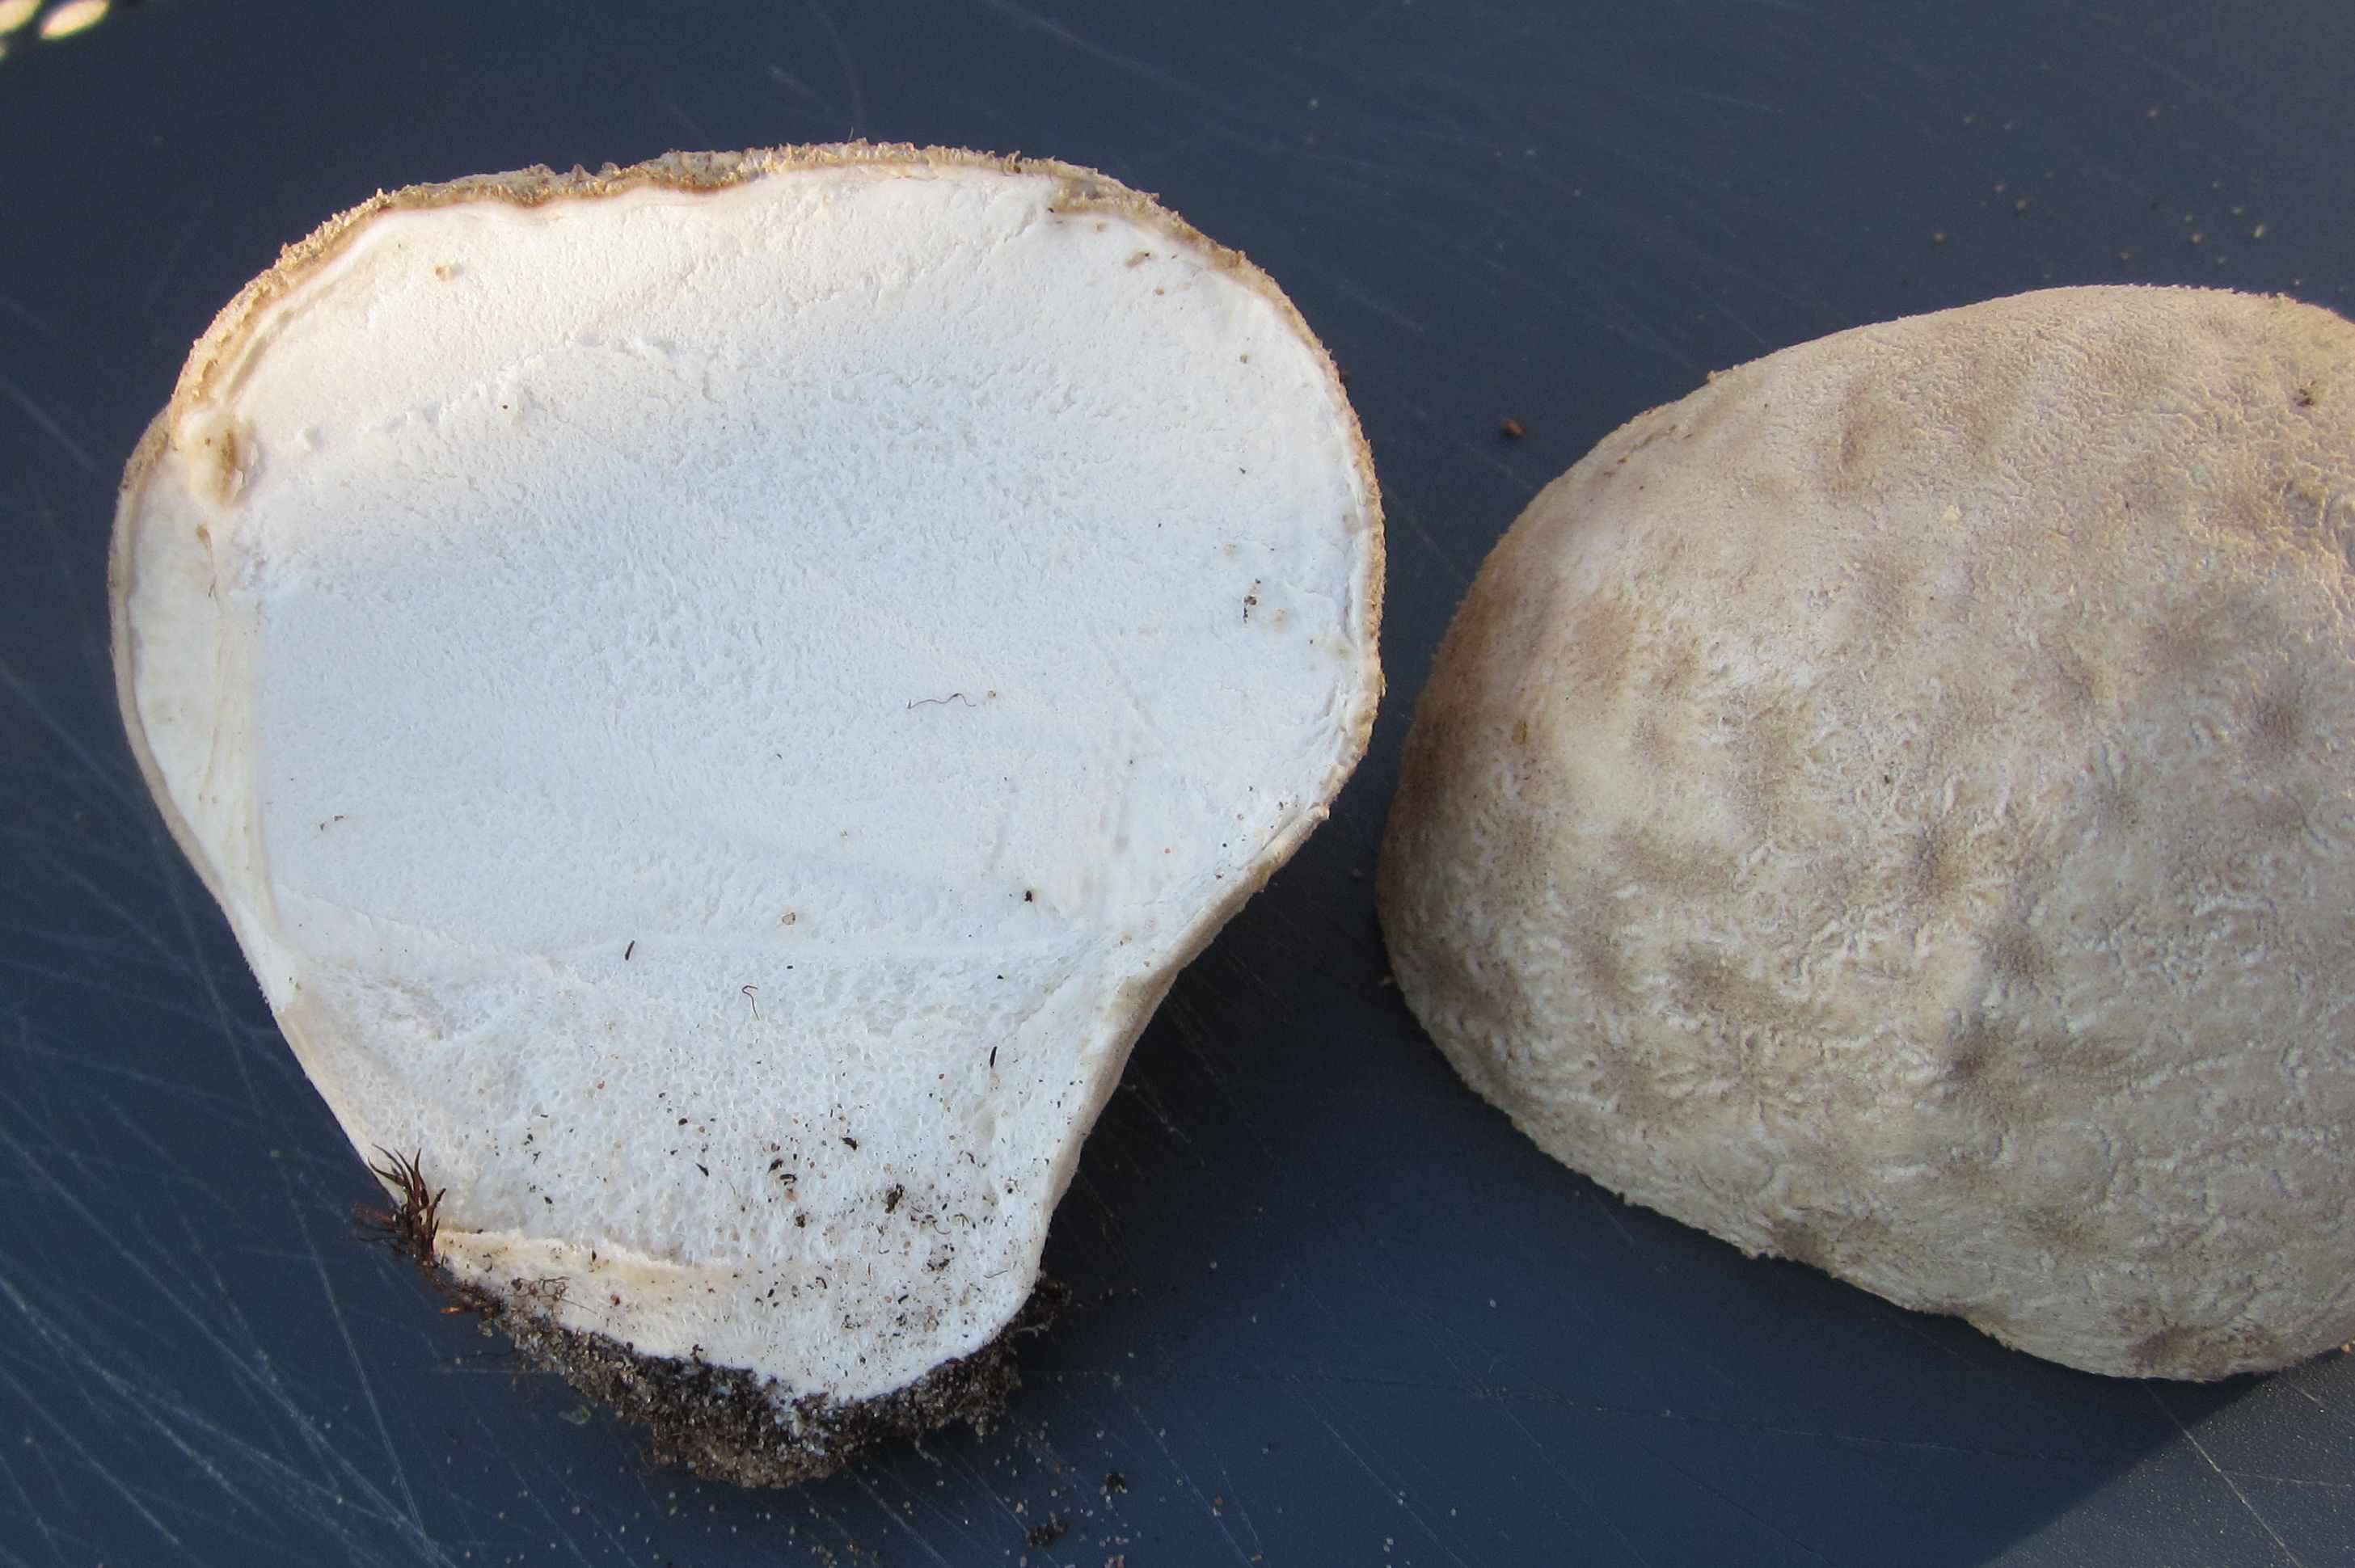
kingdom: Fungi
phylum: Basidiomycota
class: Agaricomycetes
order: Agaricales
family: Lycoperdaceae
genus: Bovistella
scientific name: Bovistella utriformis
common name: skællet støvbold
